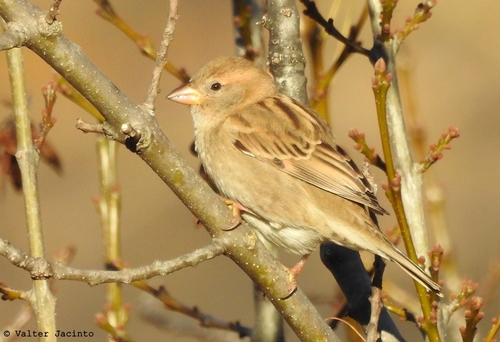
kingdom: Animalia
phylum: Chordata
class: Aves
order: Passeriformes
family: Passeridae
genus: Passer
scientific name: Passer domesticus
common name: House sparrow
